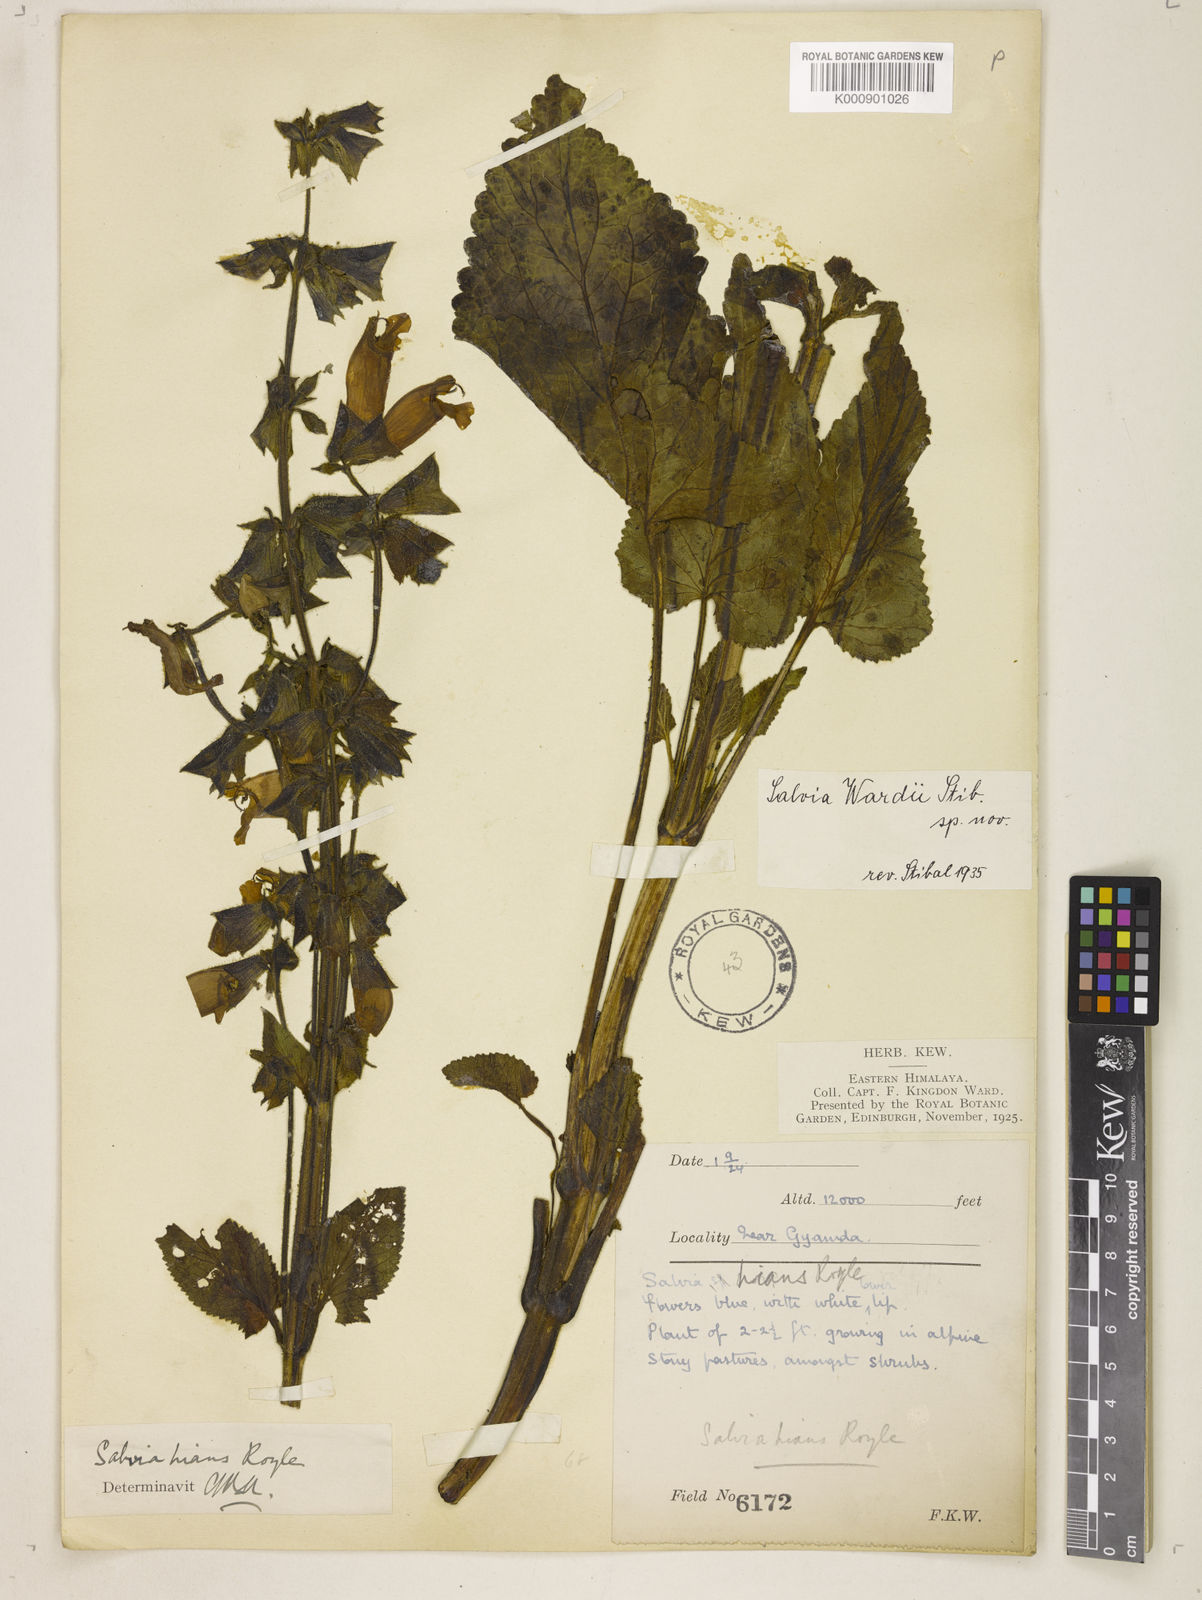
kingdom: Plantae
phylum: Tracheophyta
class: Magnoliopsida
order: Lamiales
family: Lamiaceae
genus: Salvia
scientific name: Salvia wardii
